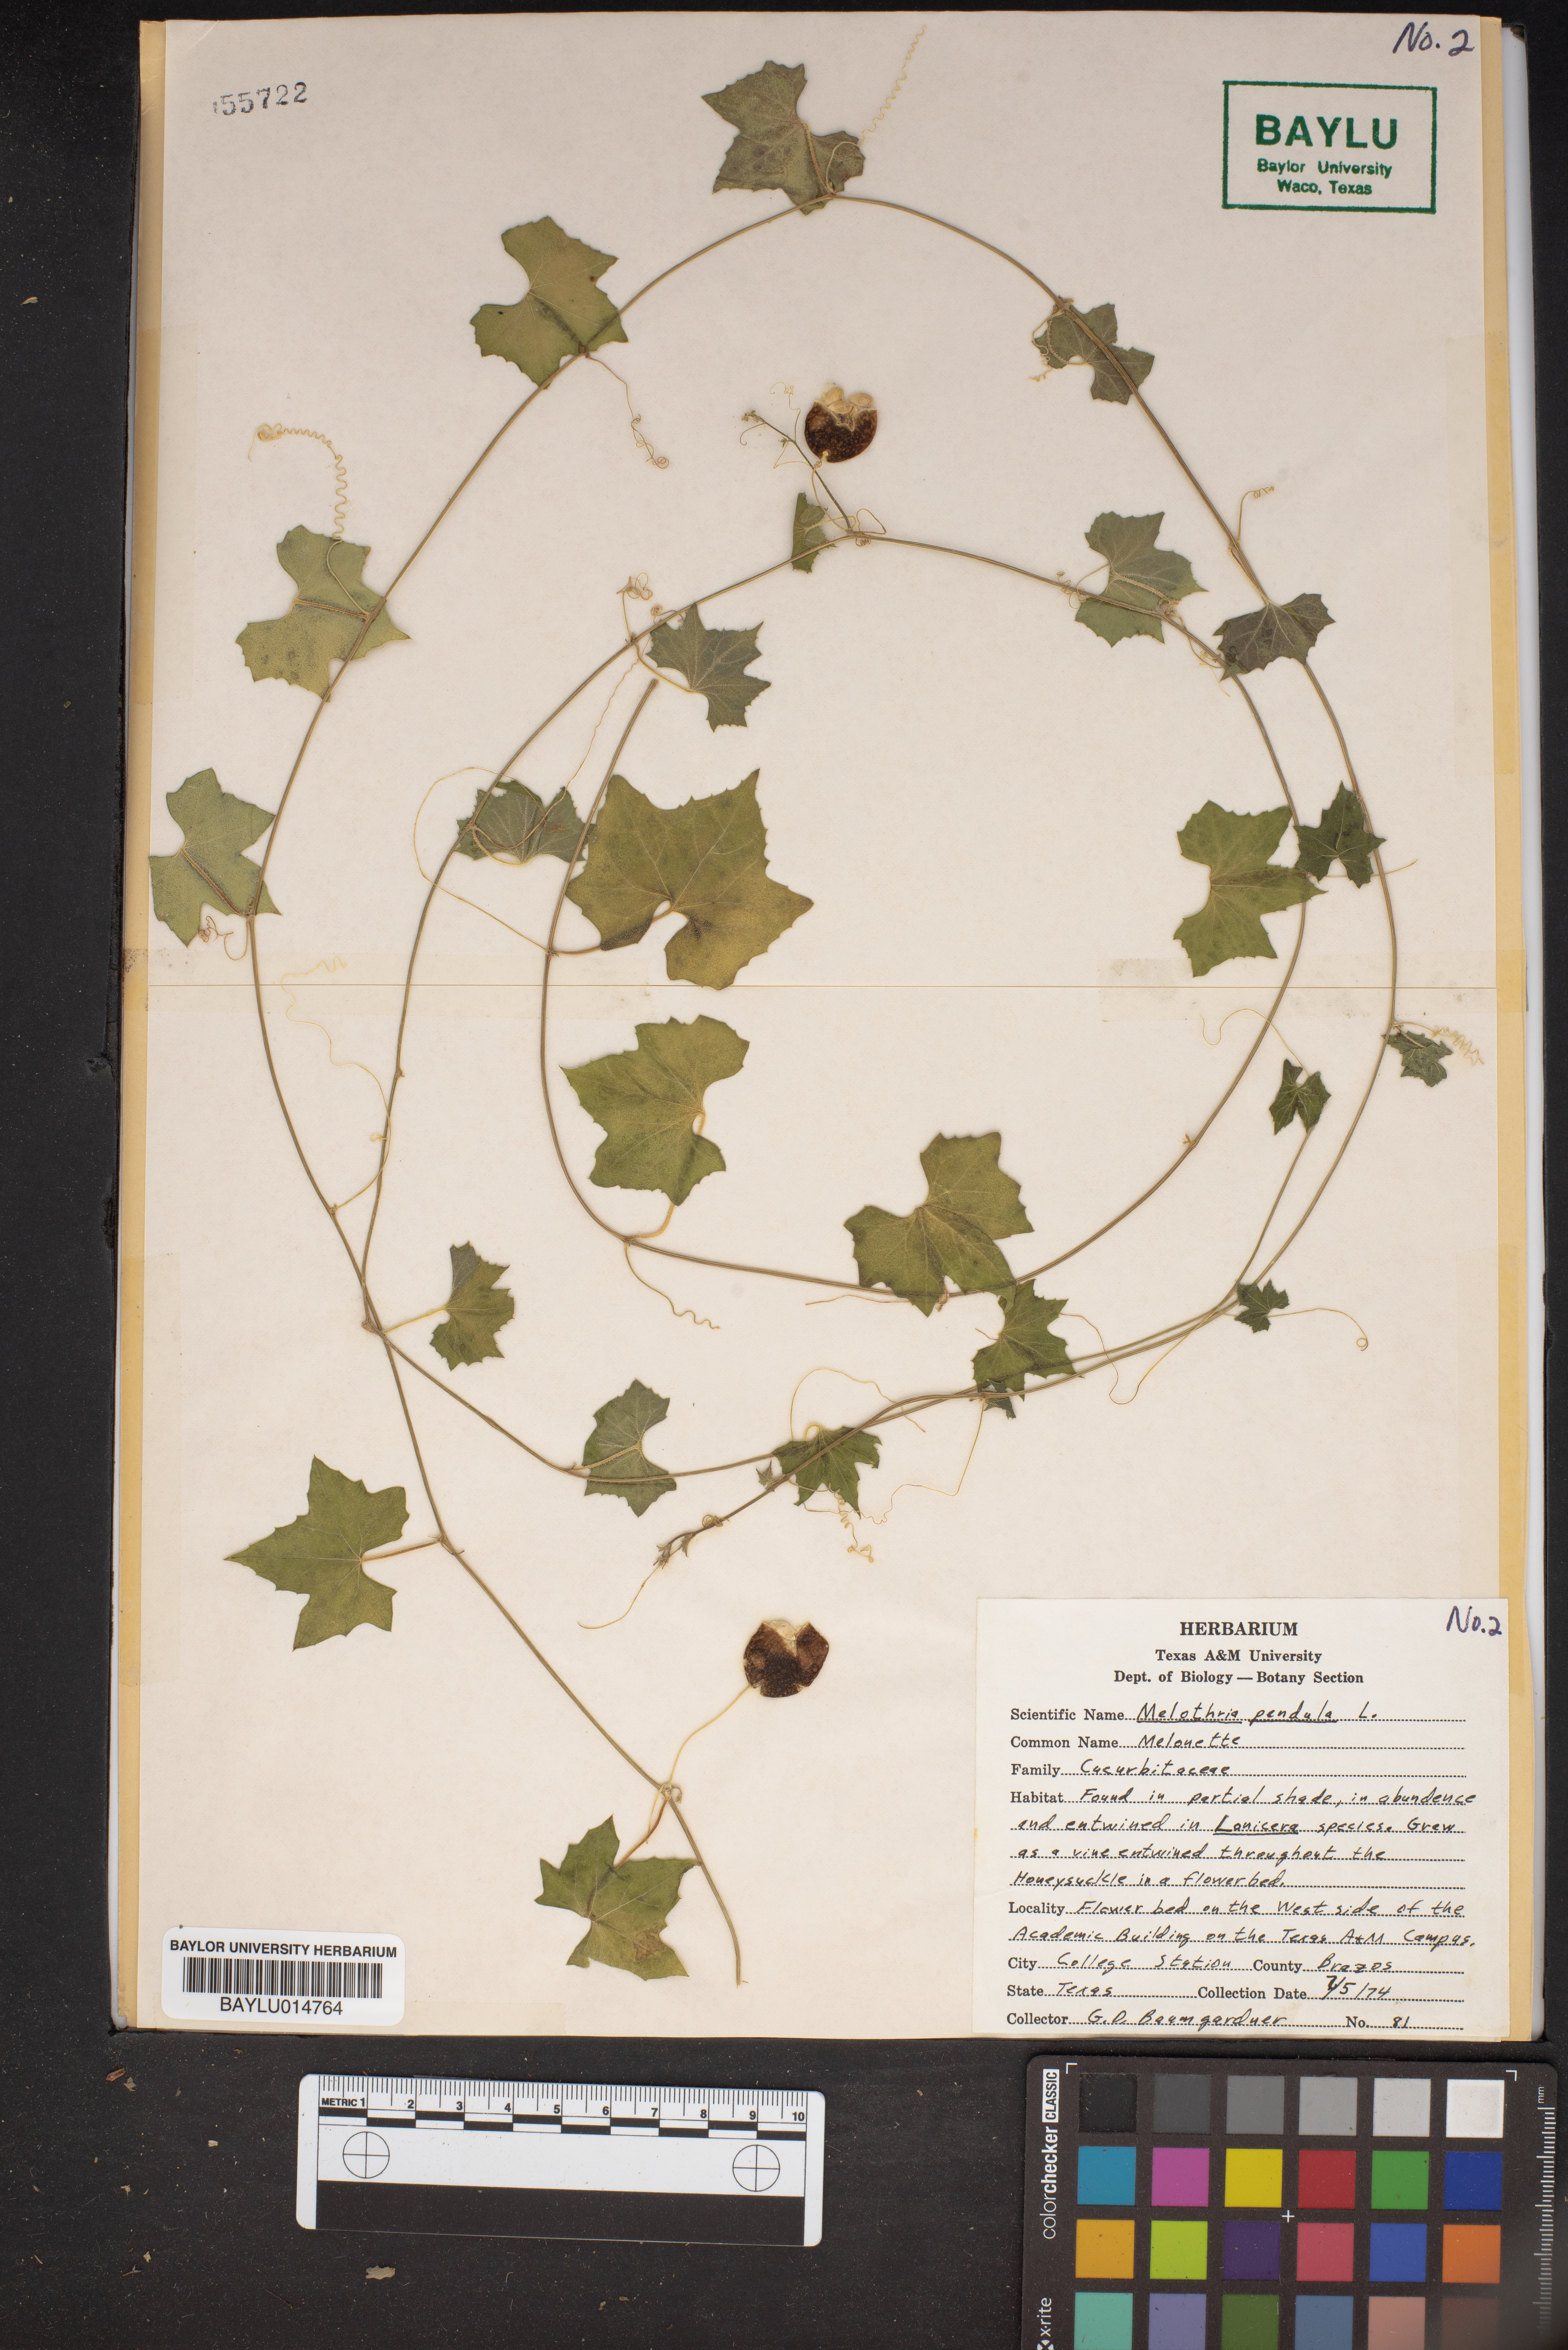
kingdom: Plantae
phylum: Tracheophyta
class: Magnoliopsida
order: Cucurbitales
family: Cucurbitaceae
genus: Melothria
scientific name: Melothria pendula
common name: Creeping-cucumber
